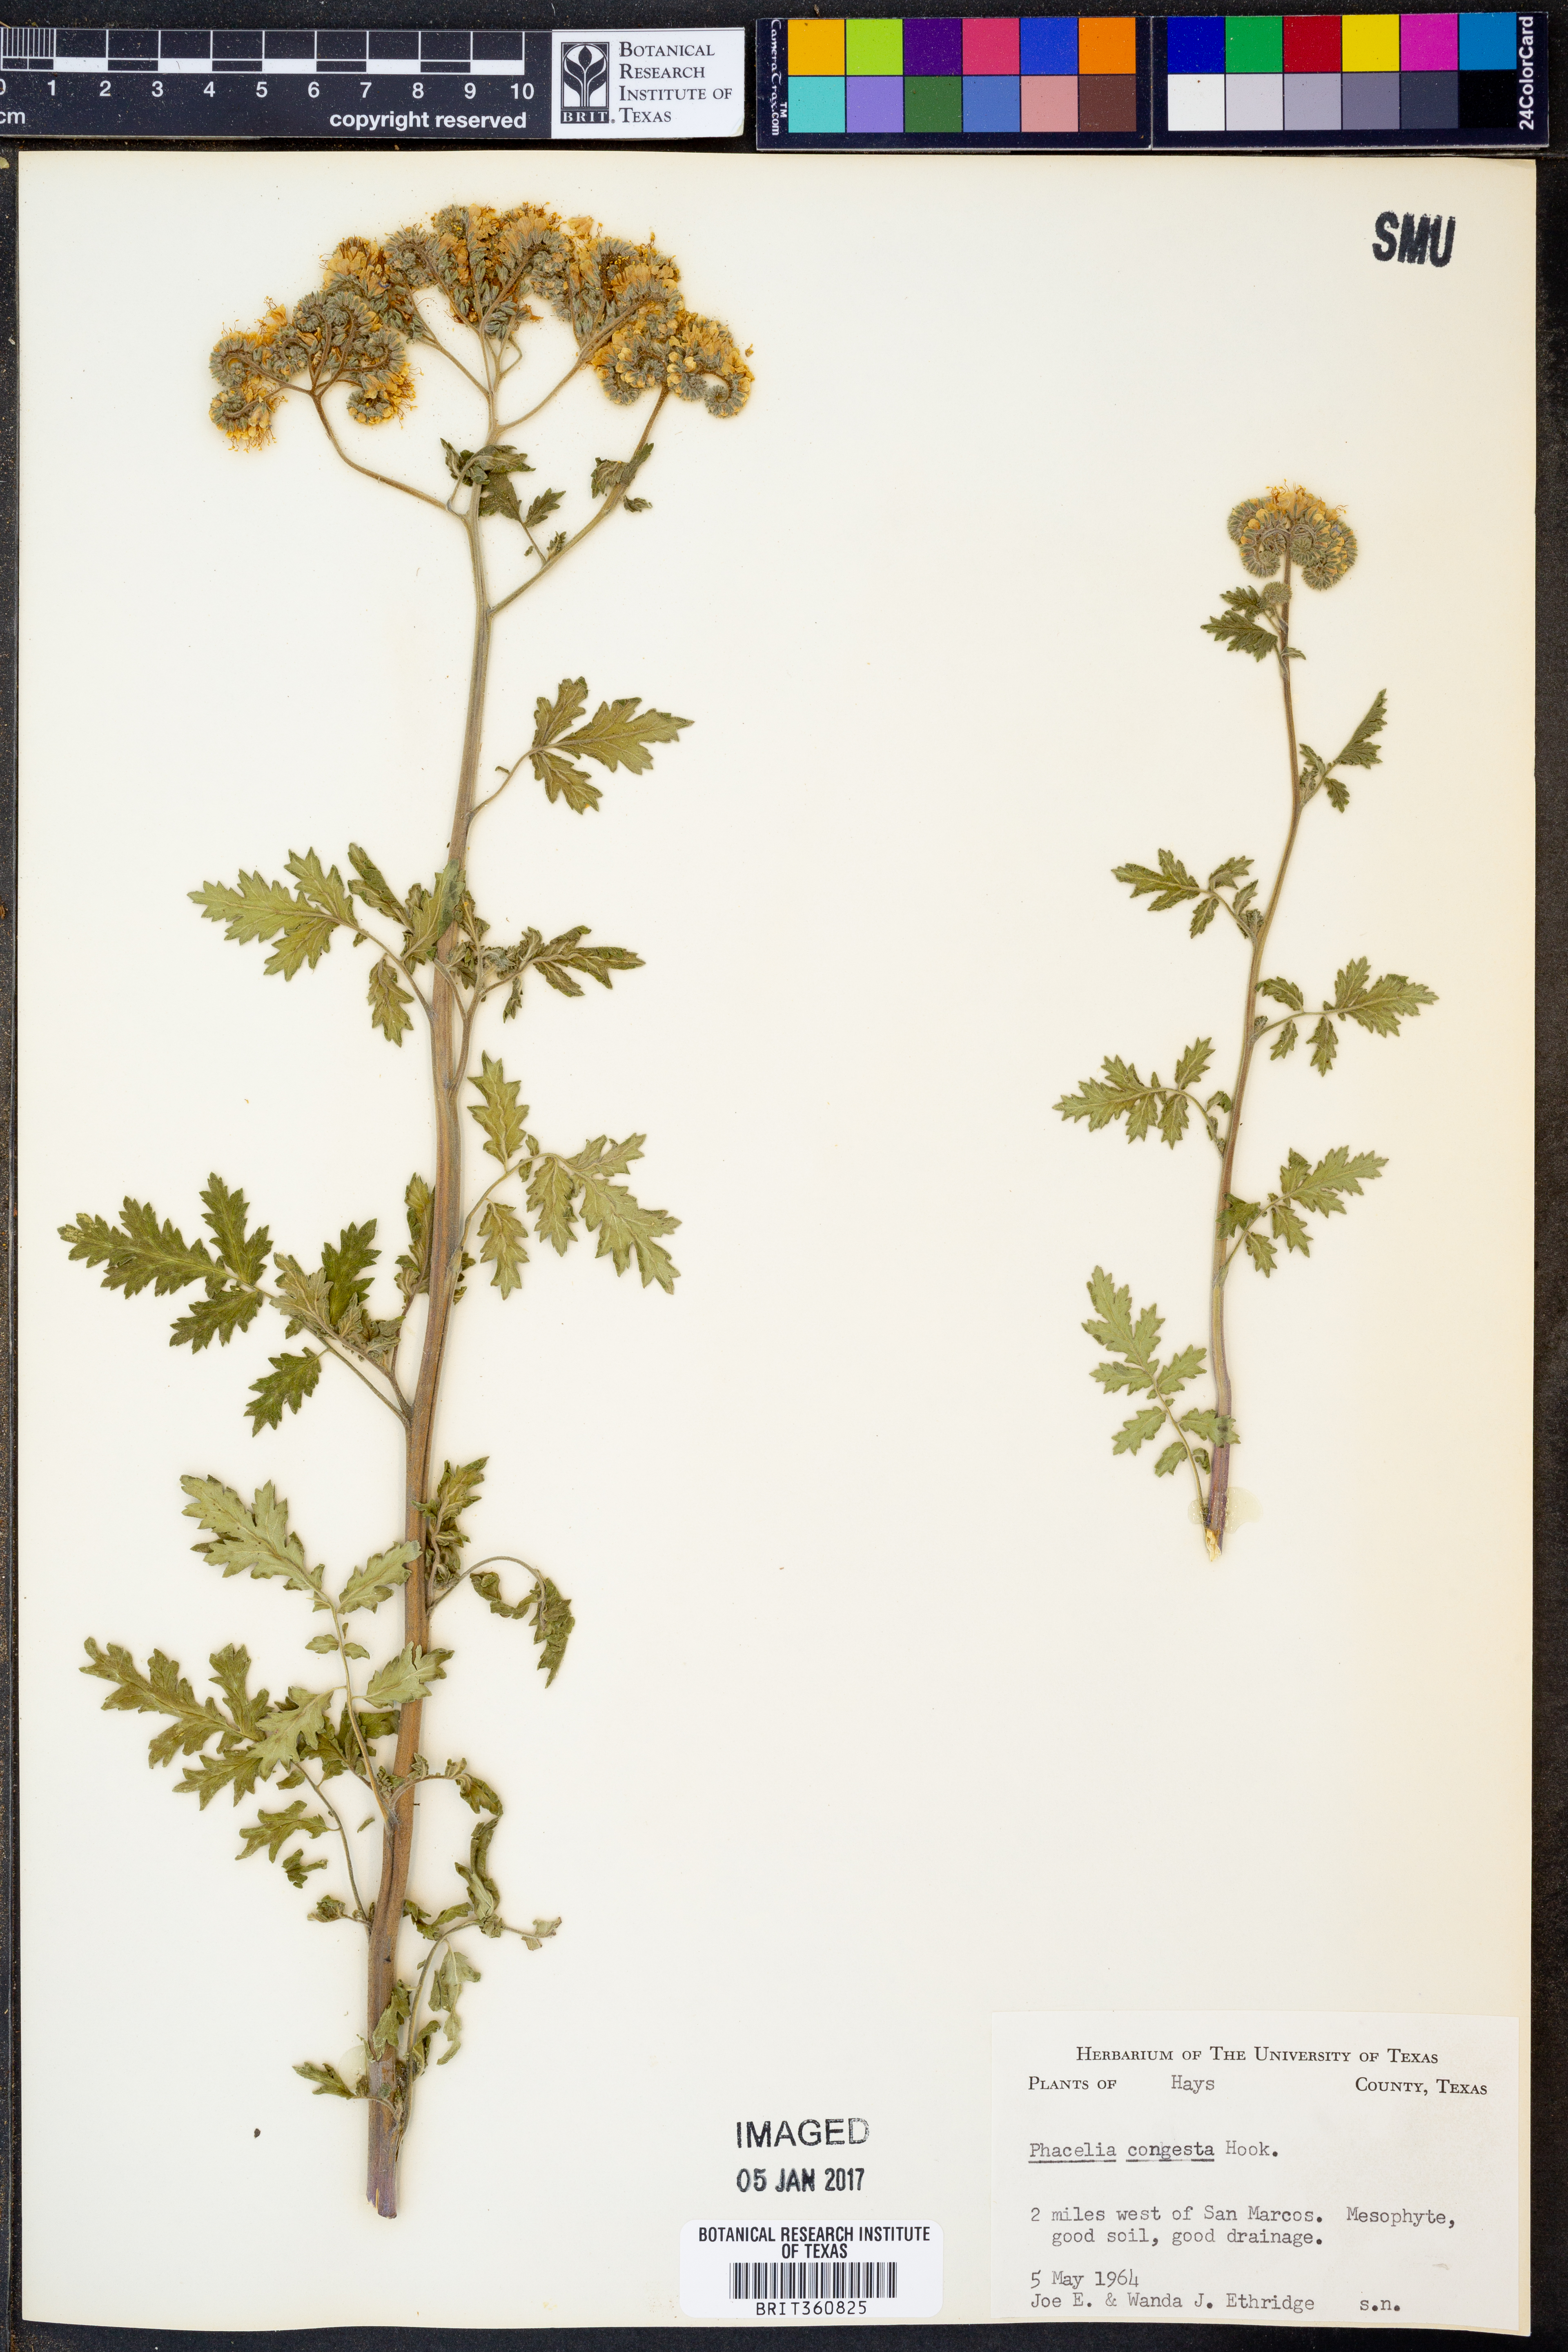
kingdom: Plantae
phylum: Tracheophyta
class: Magnoliopsida
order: Boraginales
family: Hydrophyllaceae
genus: Phacelia
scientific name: Phacelia congesta
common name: Blue curls
